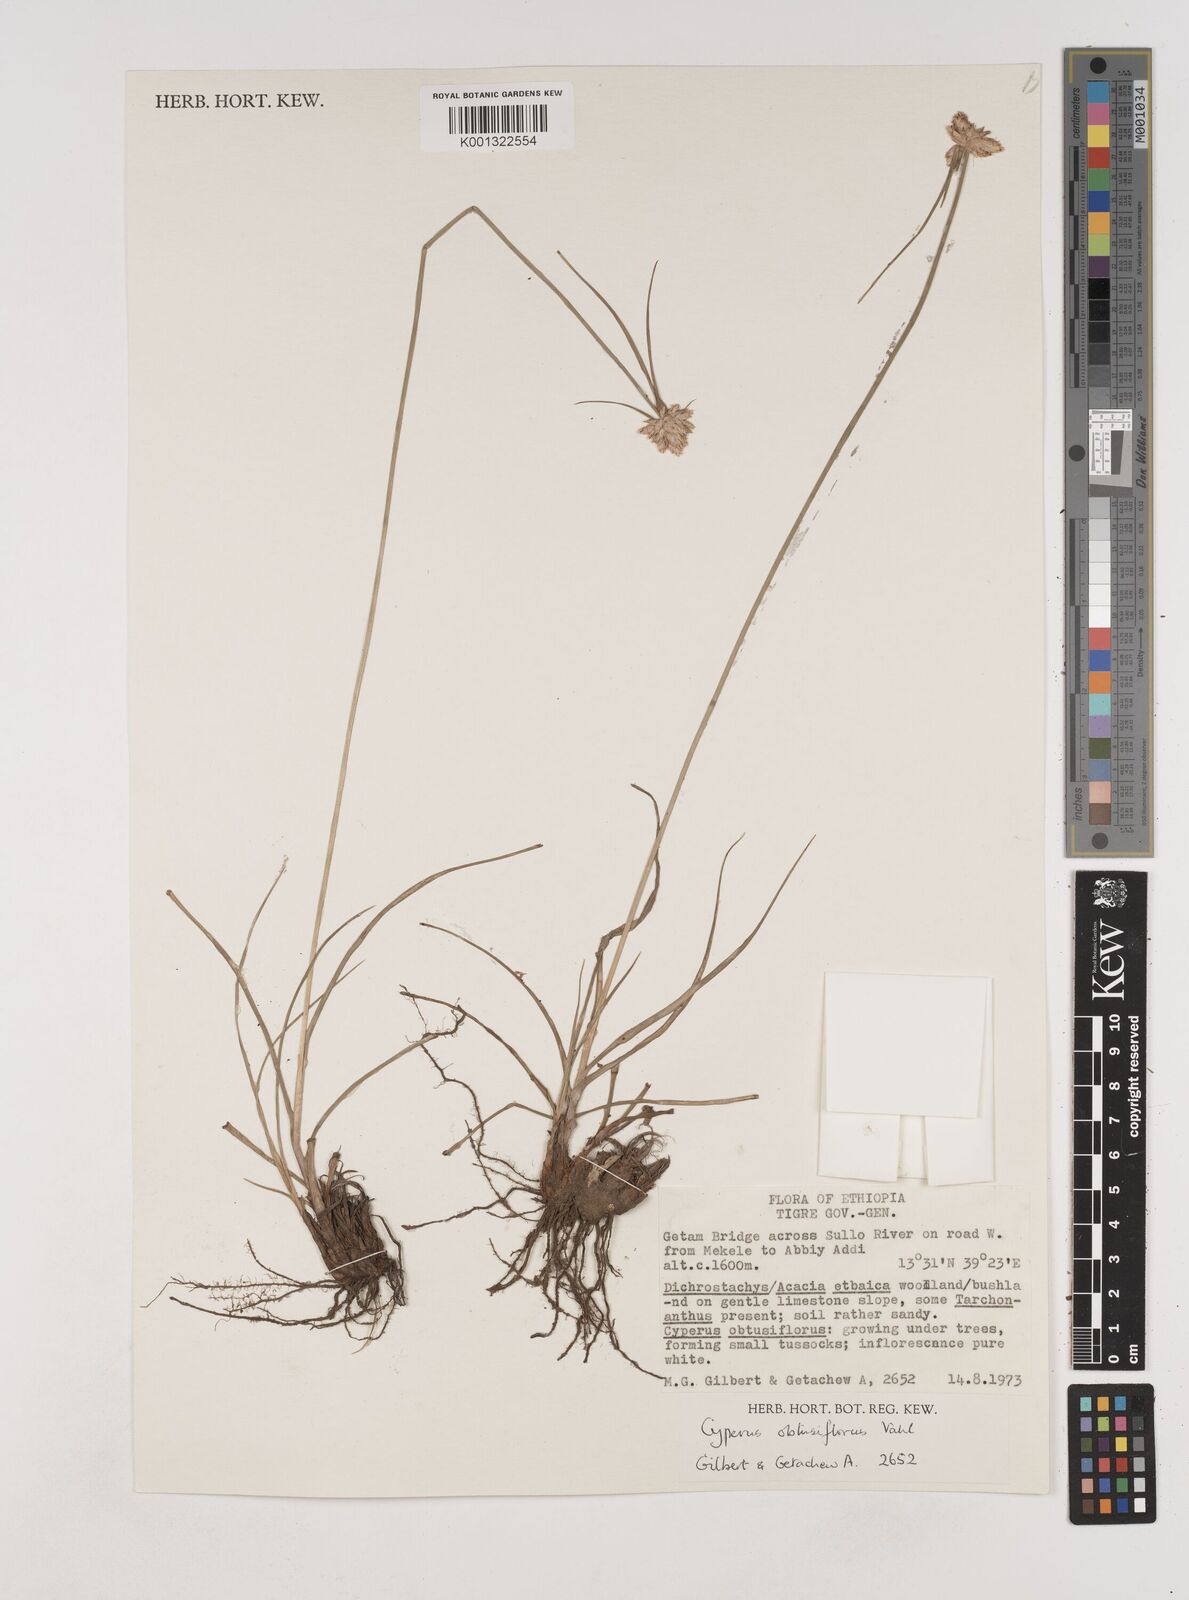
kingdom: Plantae
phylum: Tracheophyta
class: Liliopsida
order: Poales
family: Cyperaceae
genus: Cyperus
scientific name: Cyperus niveus
